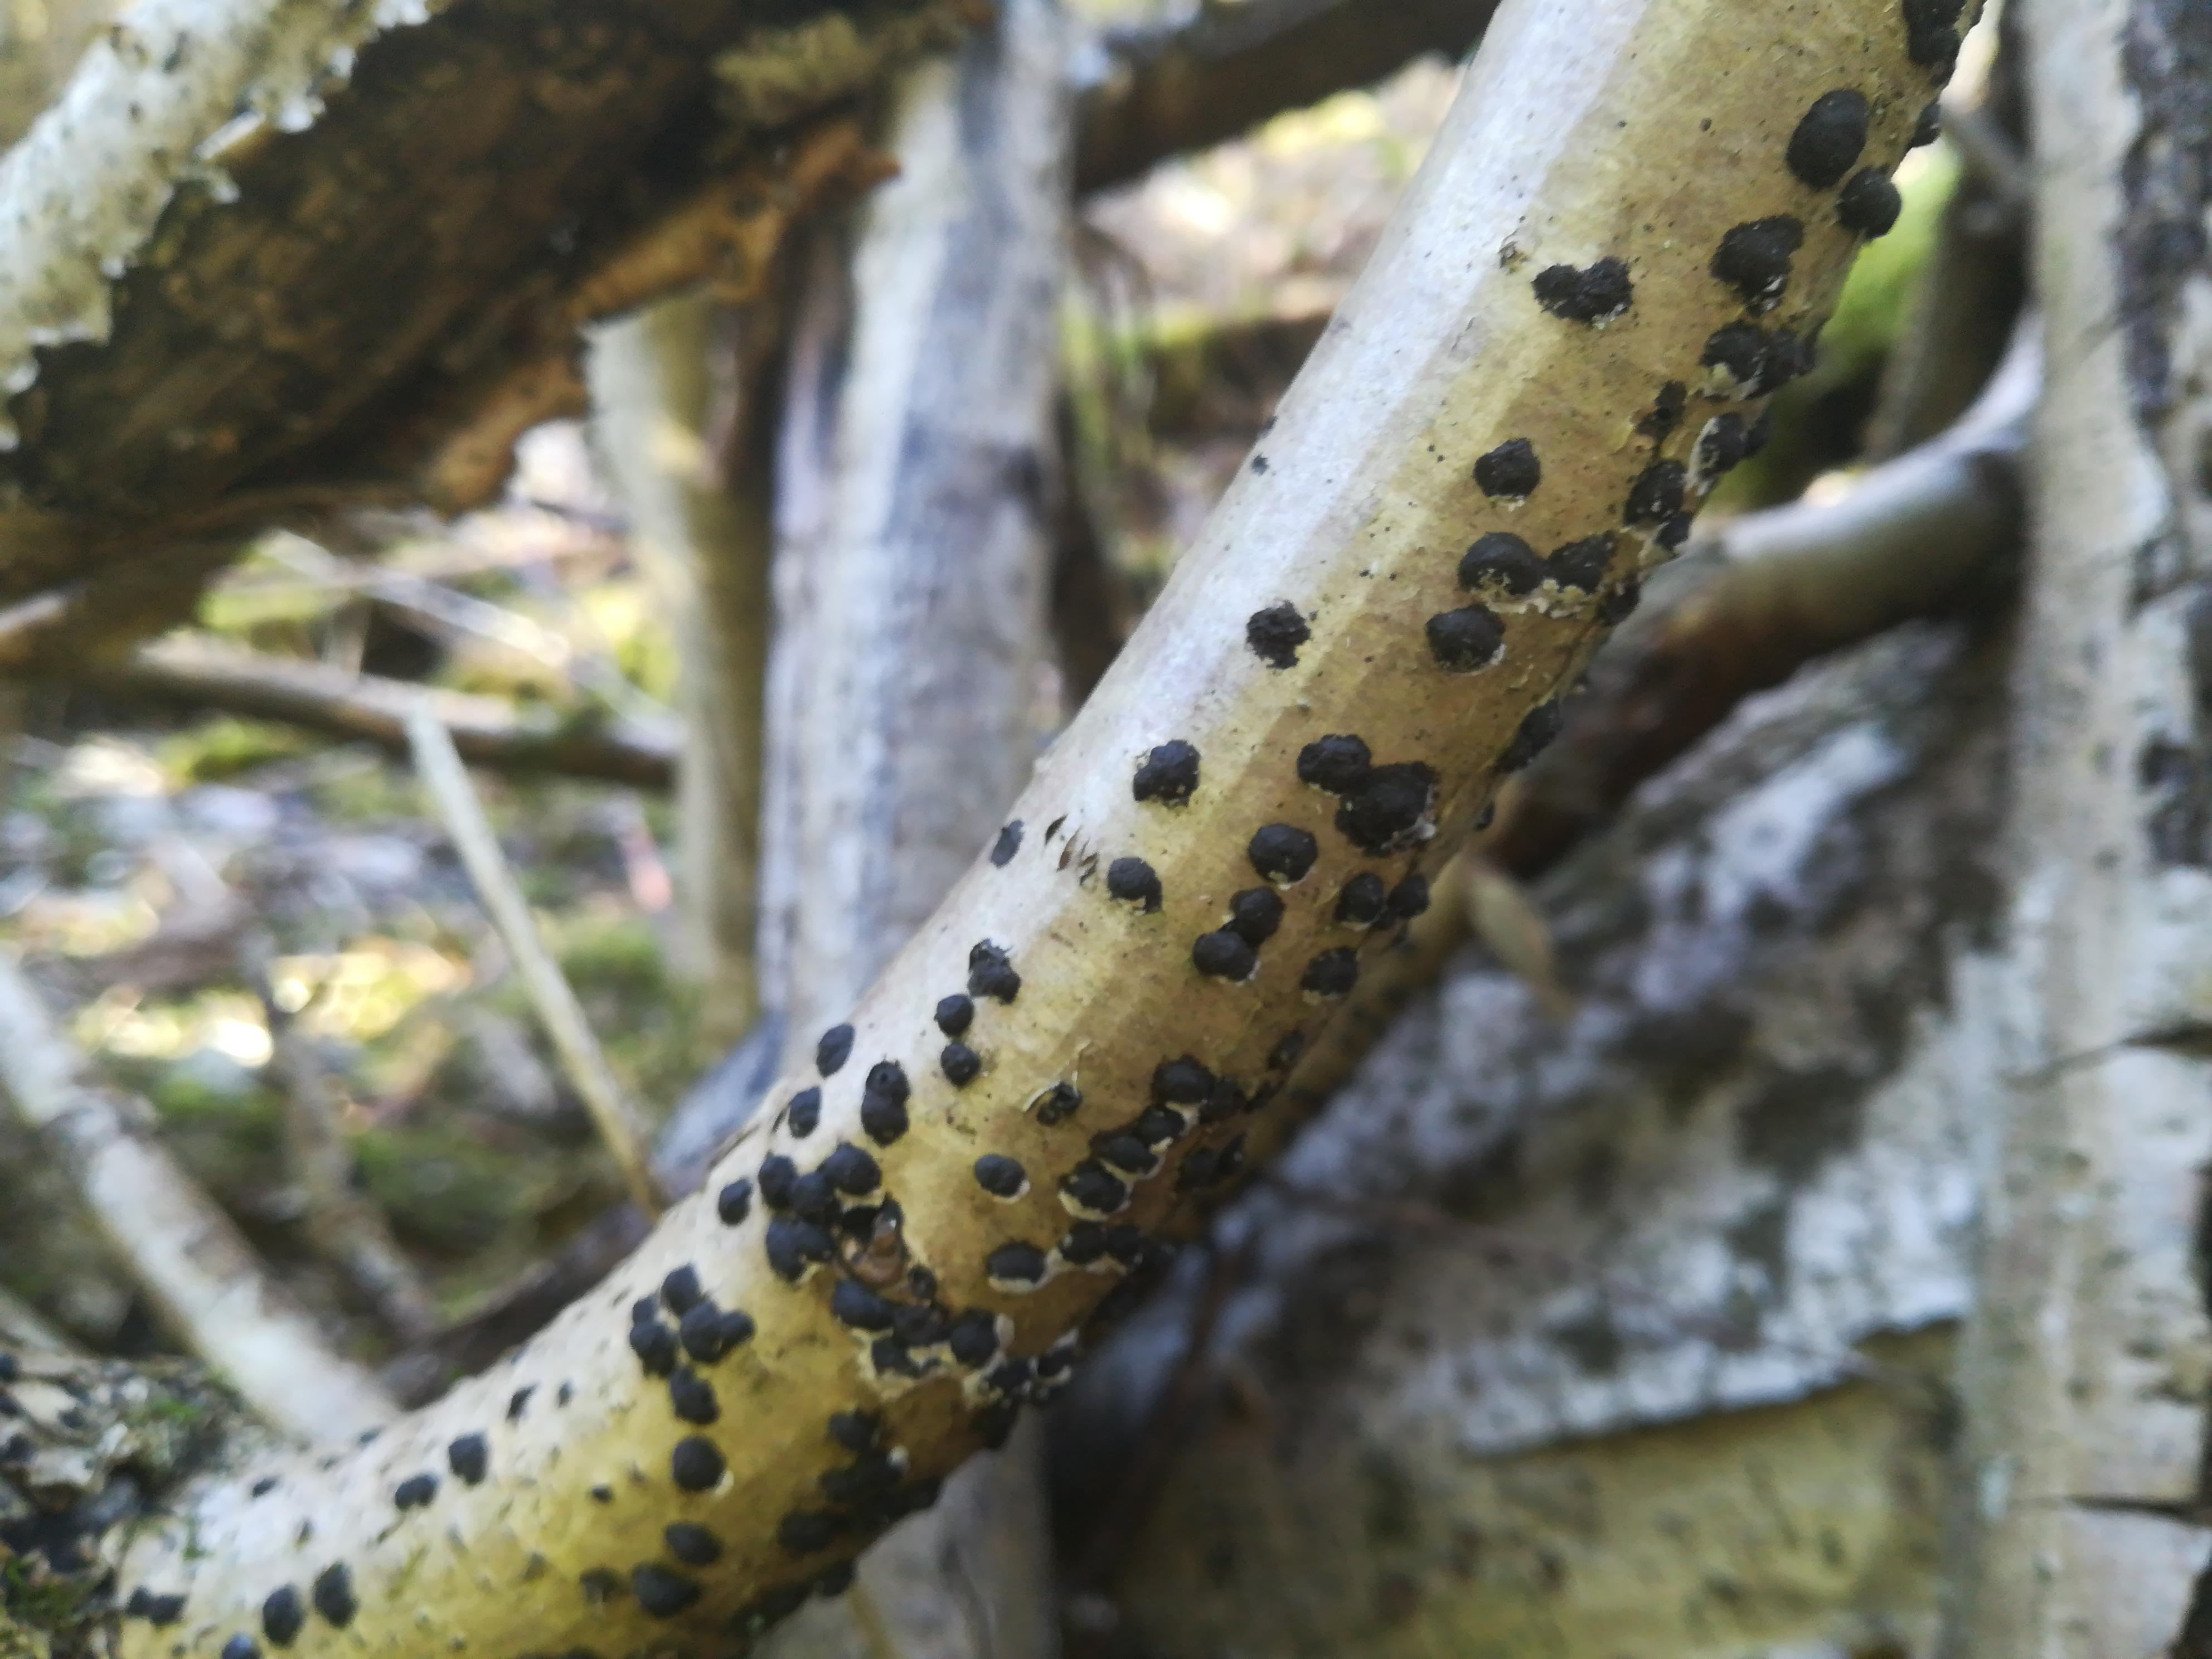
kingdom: Fungi
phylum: Ascomycota
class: Sordariomycetes
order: Xylariales
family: Hypoxylaceae
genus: Hypoxylon
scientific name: Hypoxylon fuscum
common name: kegleformet kulbær
